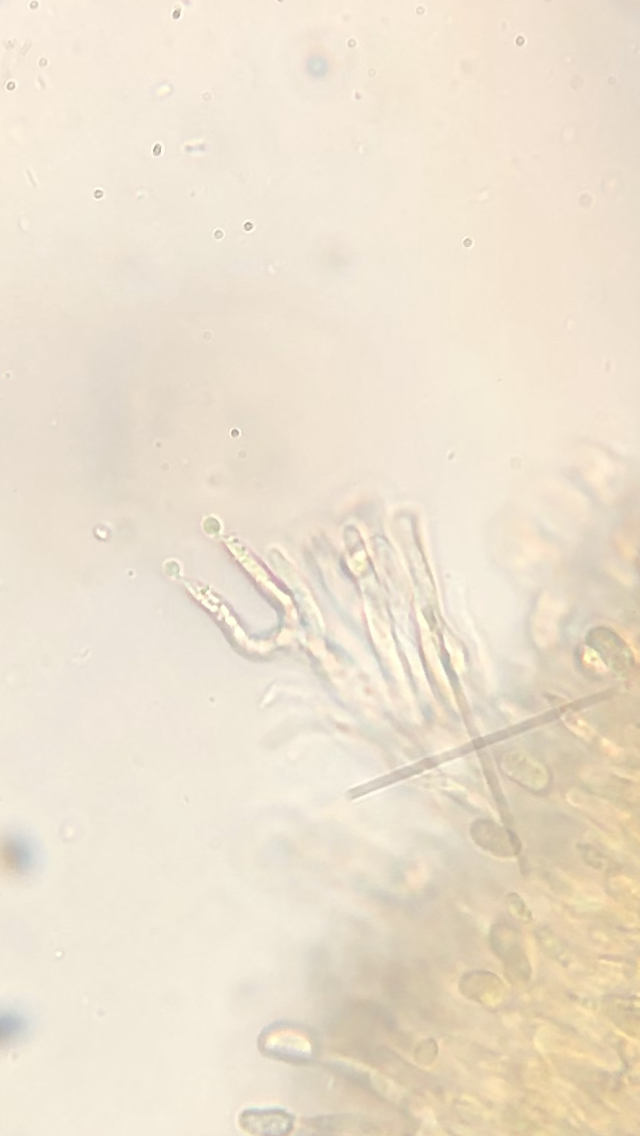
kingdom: Fungi
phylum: Basidiomycota
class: Dacrymycetes
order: Dacrymycetales
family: Dacrymycetaceae
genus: Calocera
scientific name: Calocera cornea
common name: liden guldgaffel
